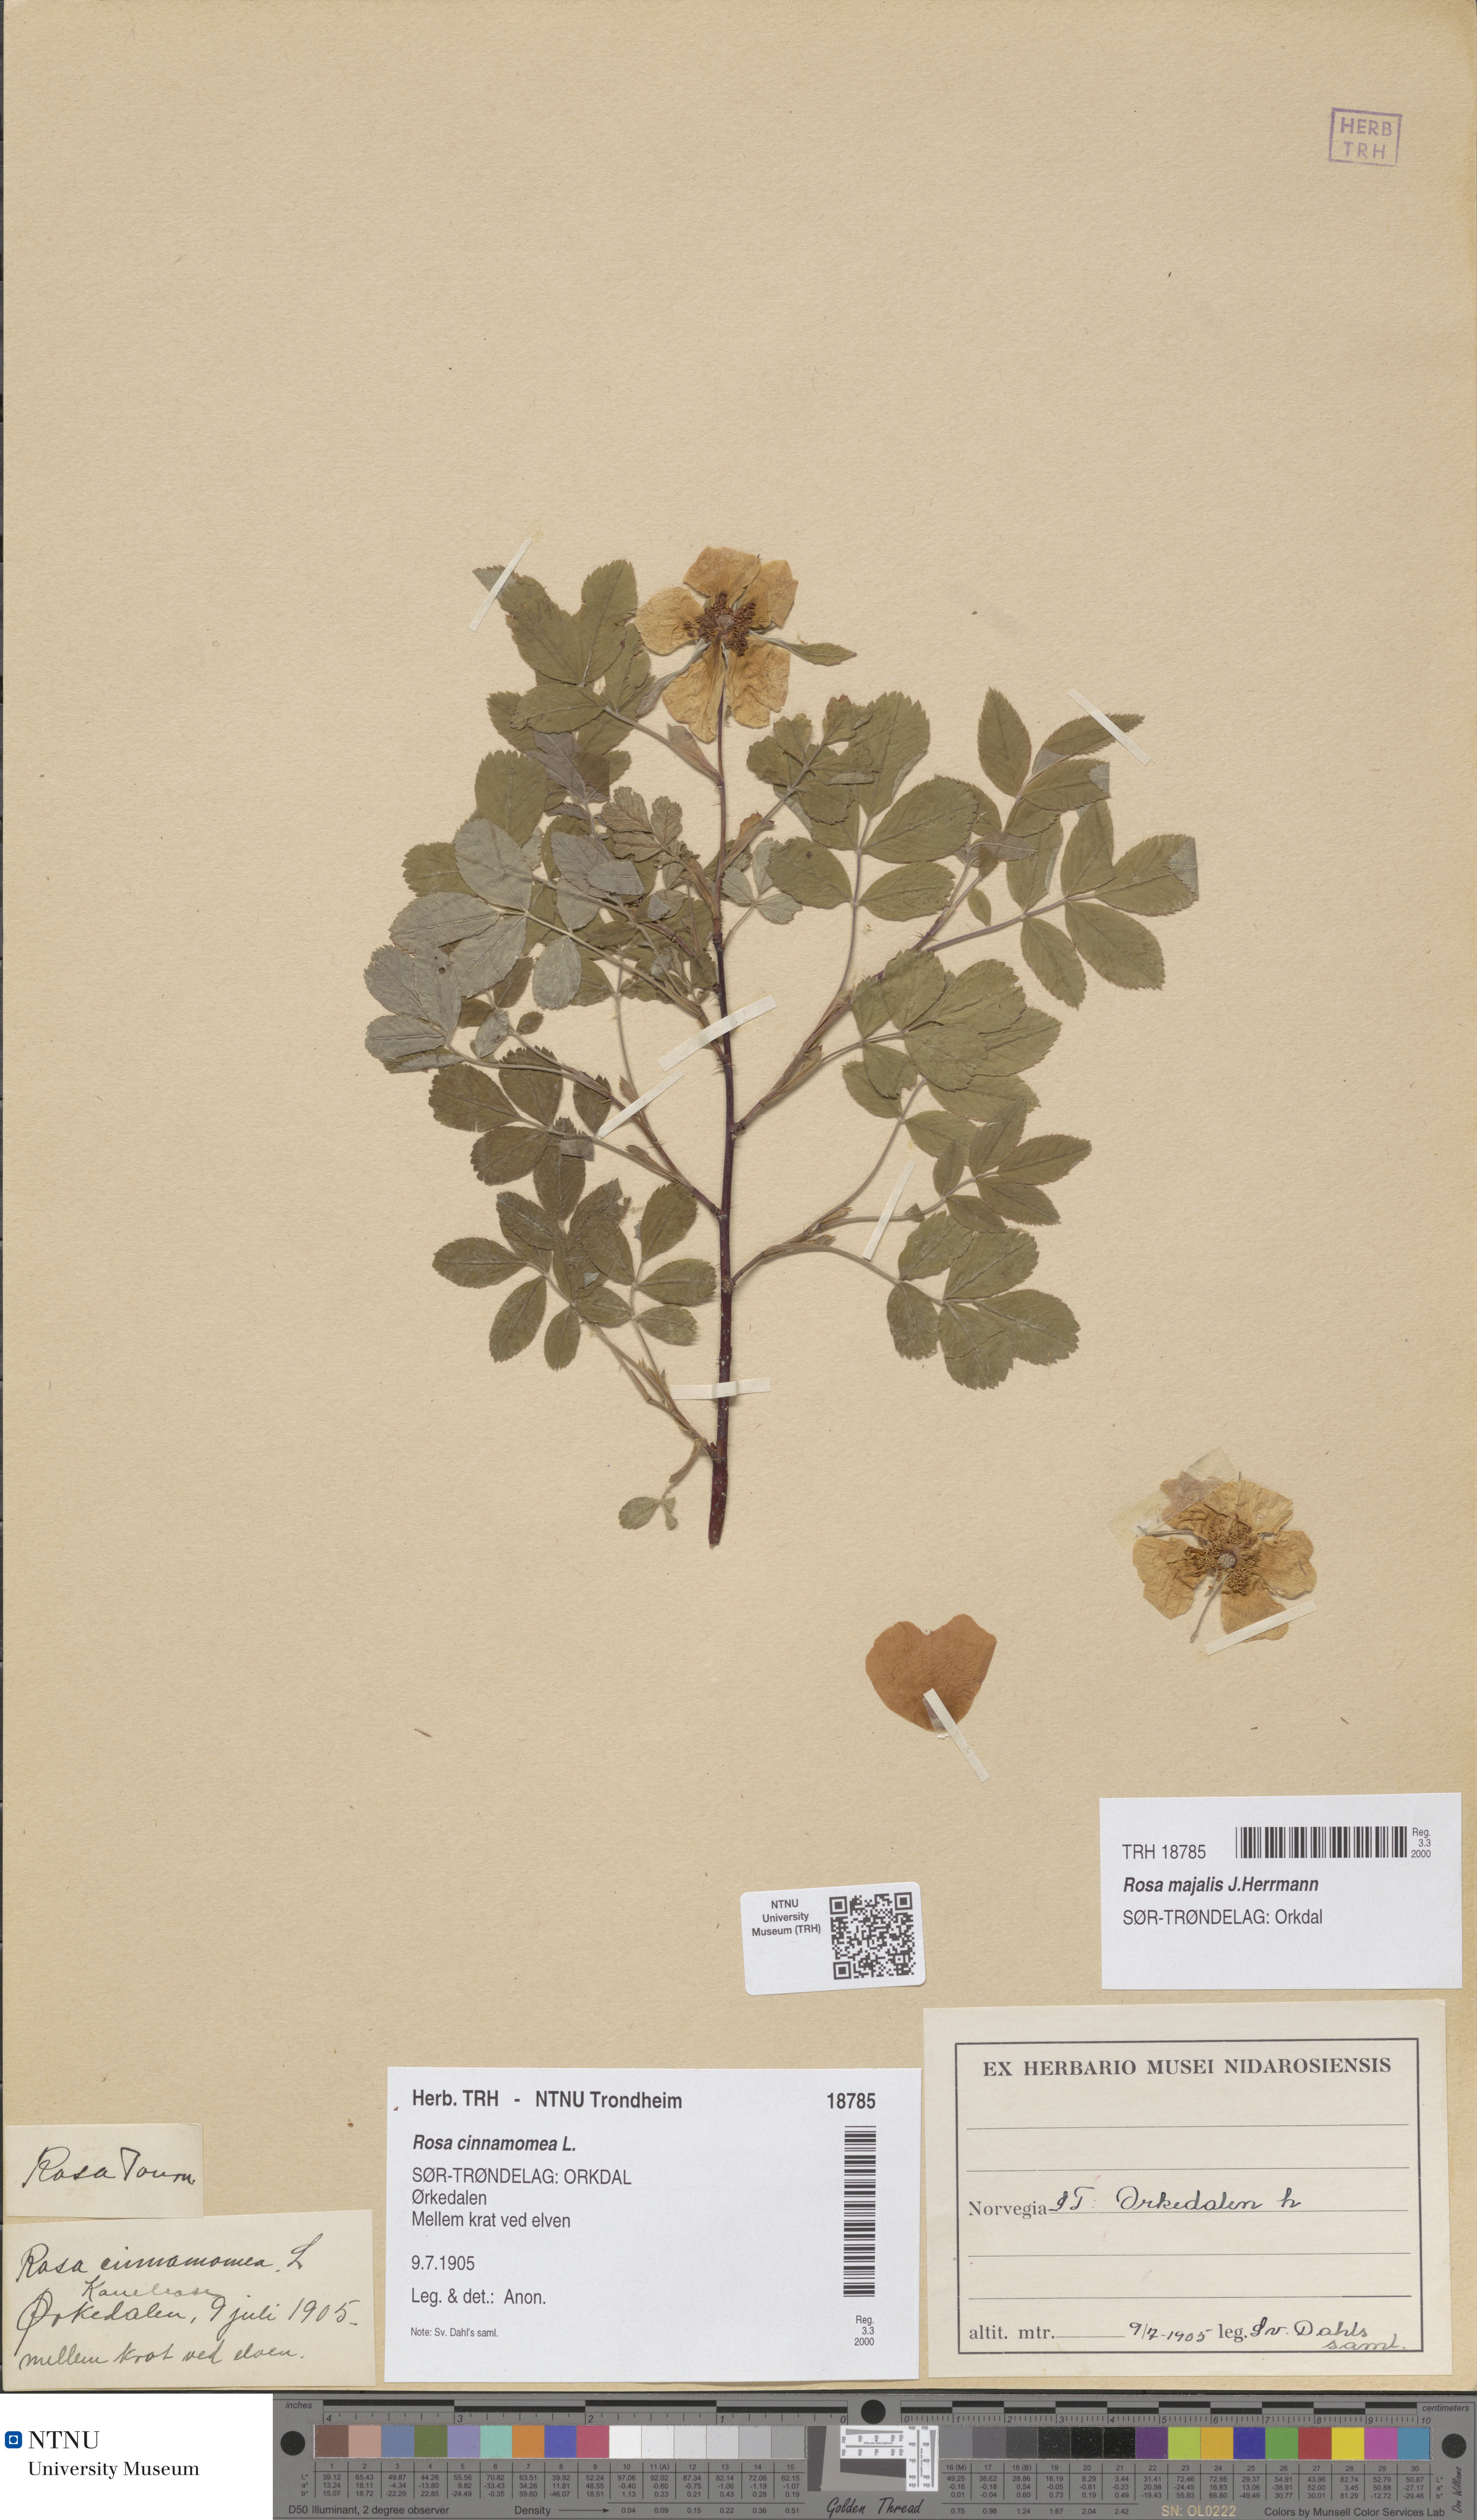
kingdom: Plantae
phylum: Tracheophyta
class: Magnoliopsida
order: Rosales
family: Rosaceae
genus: Rosa
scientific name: Rosa pendulina
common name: Alpine rose
